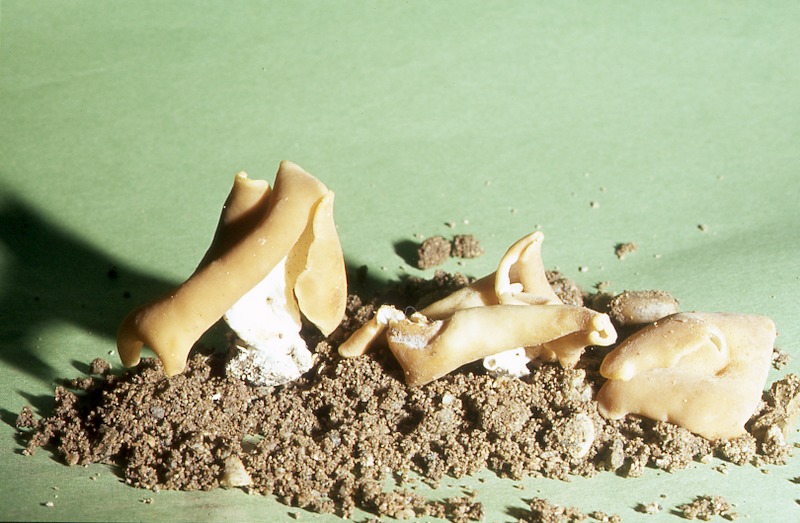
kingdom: Fungi
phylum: Ascomycota
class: Pezizomycetes
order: Pezizales
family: Pezizaceae
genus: Peziza
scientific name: Peziza cerea
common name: Cellar cup
